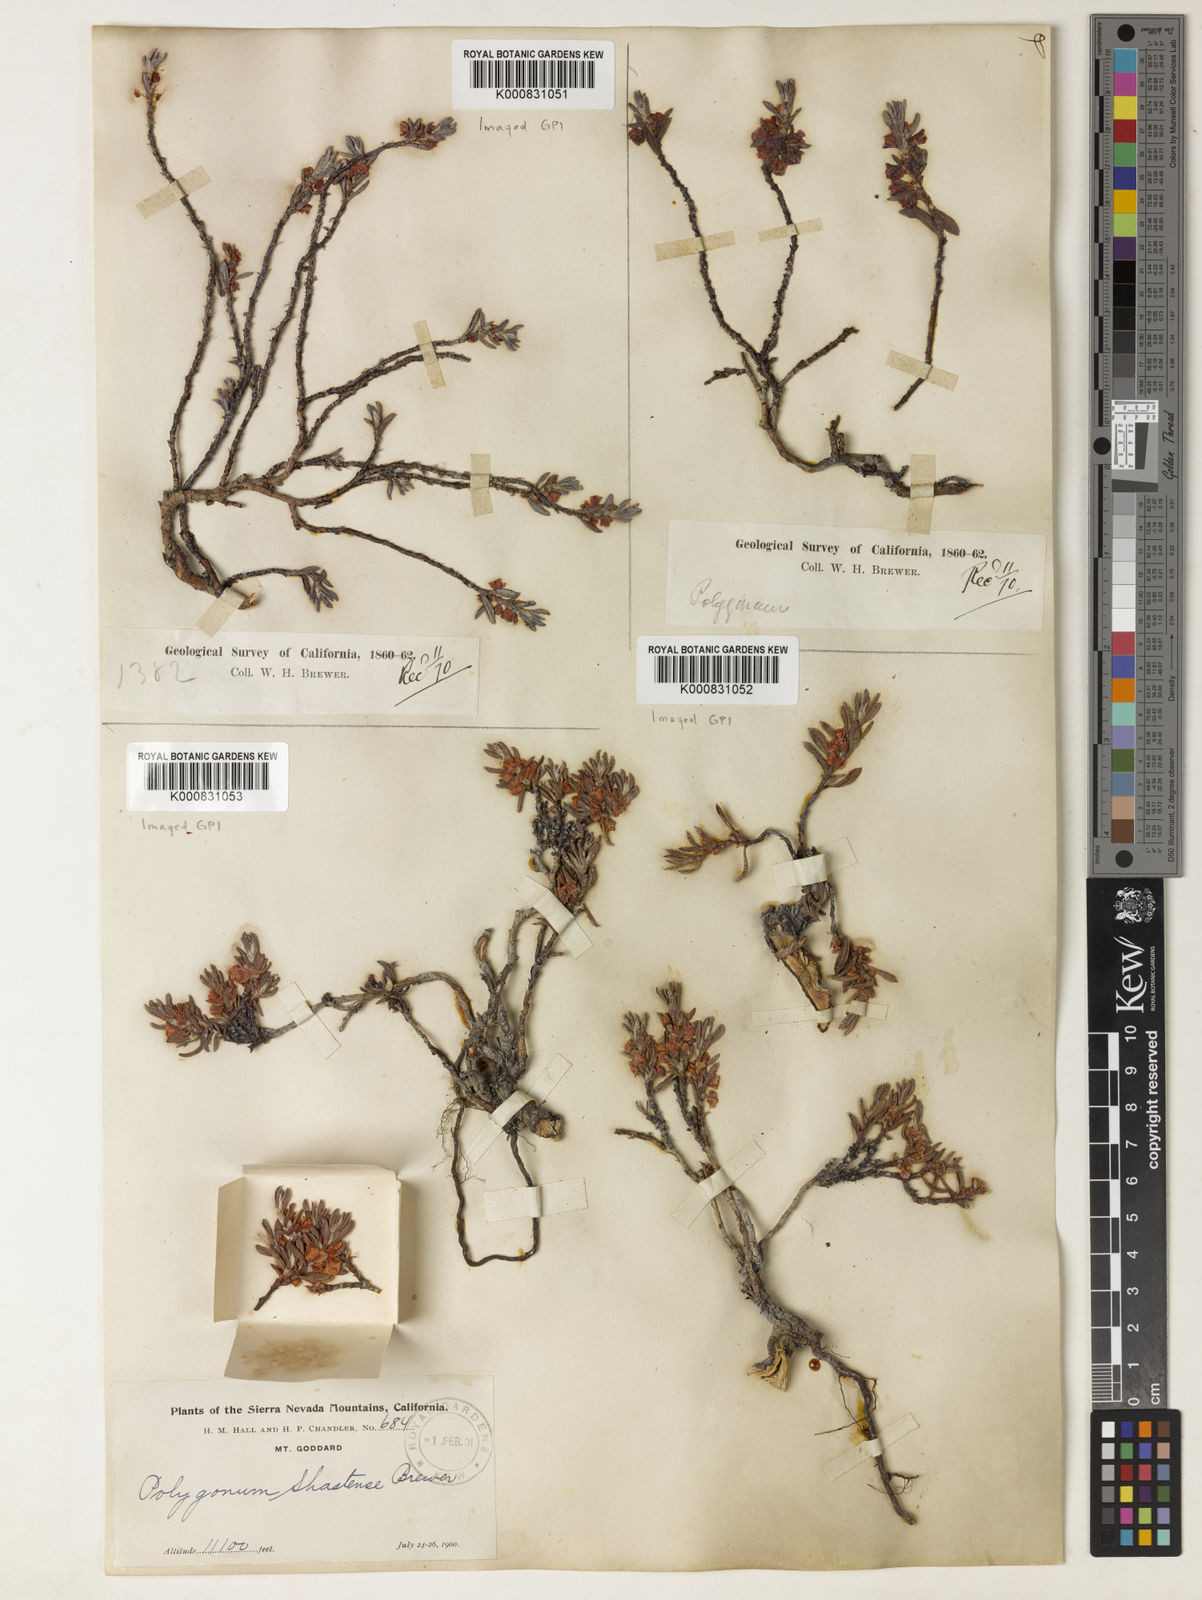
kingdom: Plantae
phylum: Tracheophyta
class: Magnoliopsida
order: Caryophyllales
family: Polygonaceae
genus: Polygonum
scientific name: Polygonum
